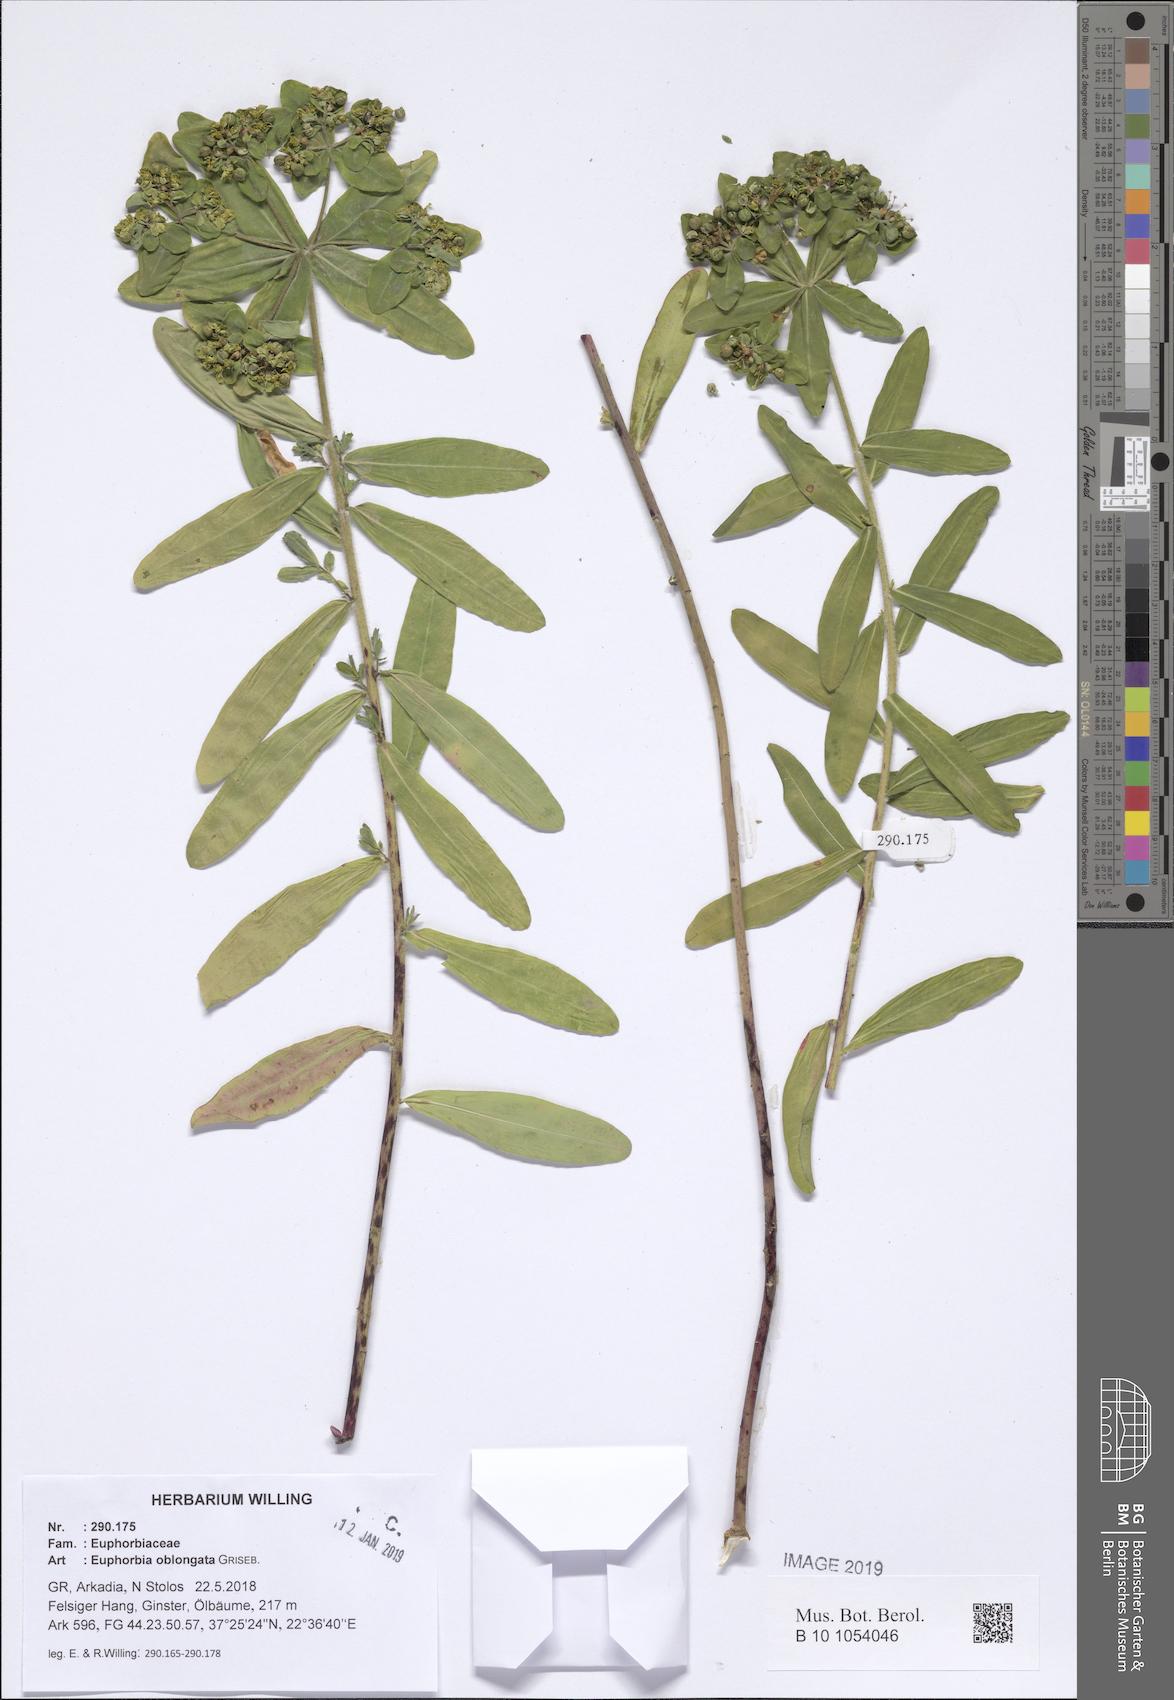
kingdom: Plantae
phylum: Tracheophyta
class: Magnoliopsida
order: Malpighiales
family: Euphorbiaceae
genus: Euphorbia
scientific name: Euphorbia oblongata
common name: Balkan spurge
